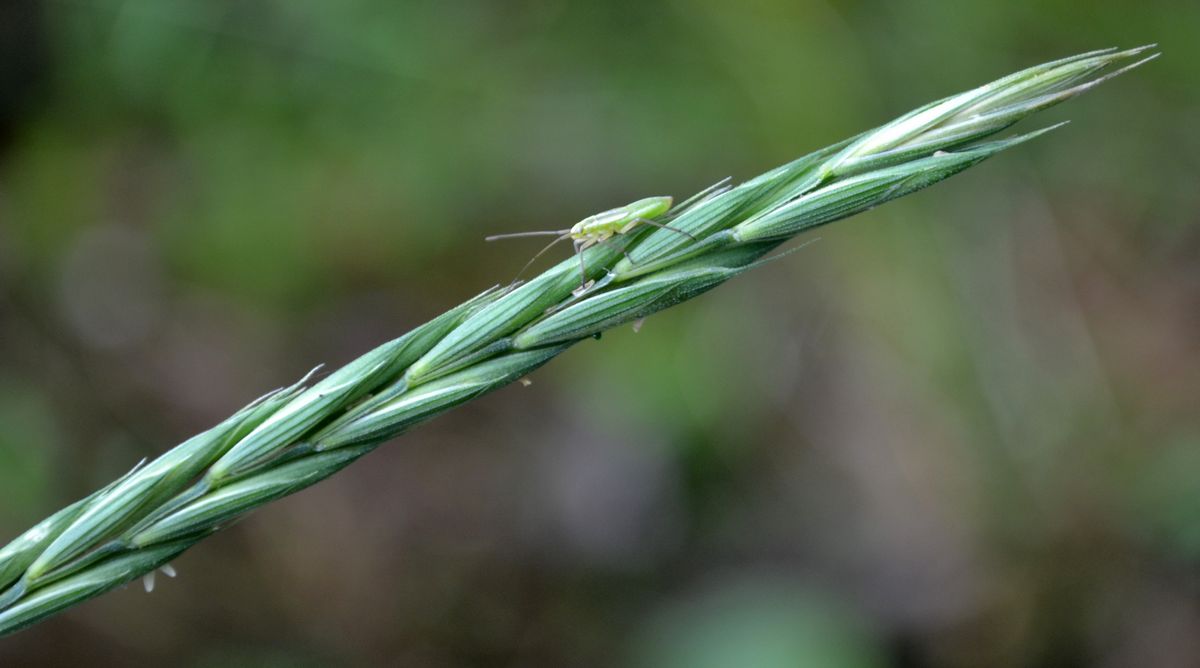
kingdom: Plantae
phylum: Tracheophyta
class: Liliopsida
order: Poales
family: Poaceae
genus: Elymus
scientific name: Elymus repens
